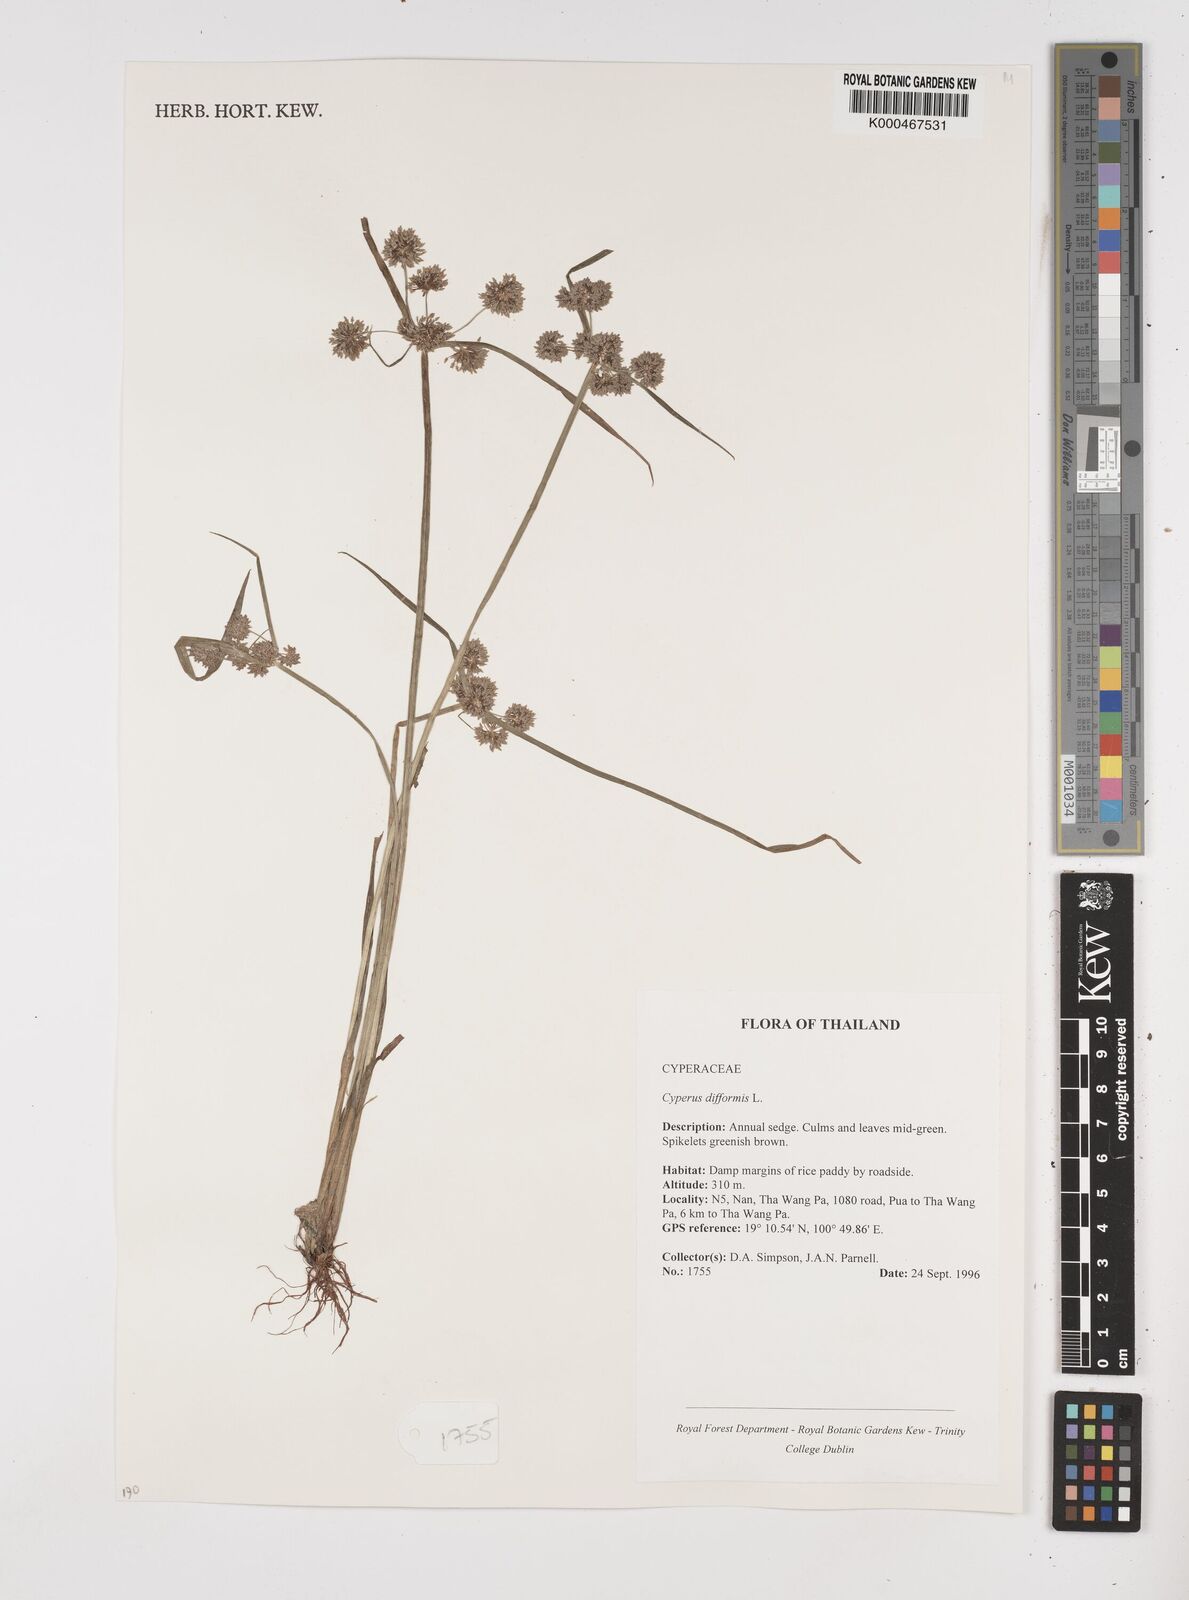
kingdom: Plantae
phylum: Tracheophyta
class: Liliopsida
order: Poales
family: Cyperaceae
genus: Cyperus
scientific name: Cyperus difformis
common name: Variable flatsedge
